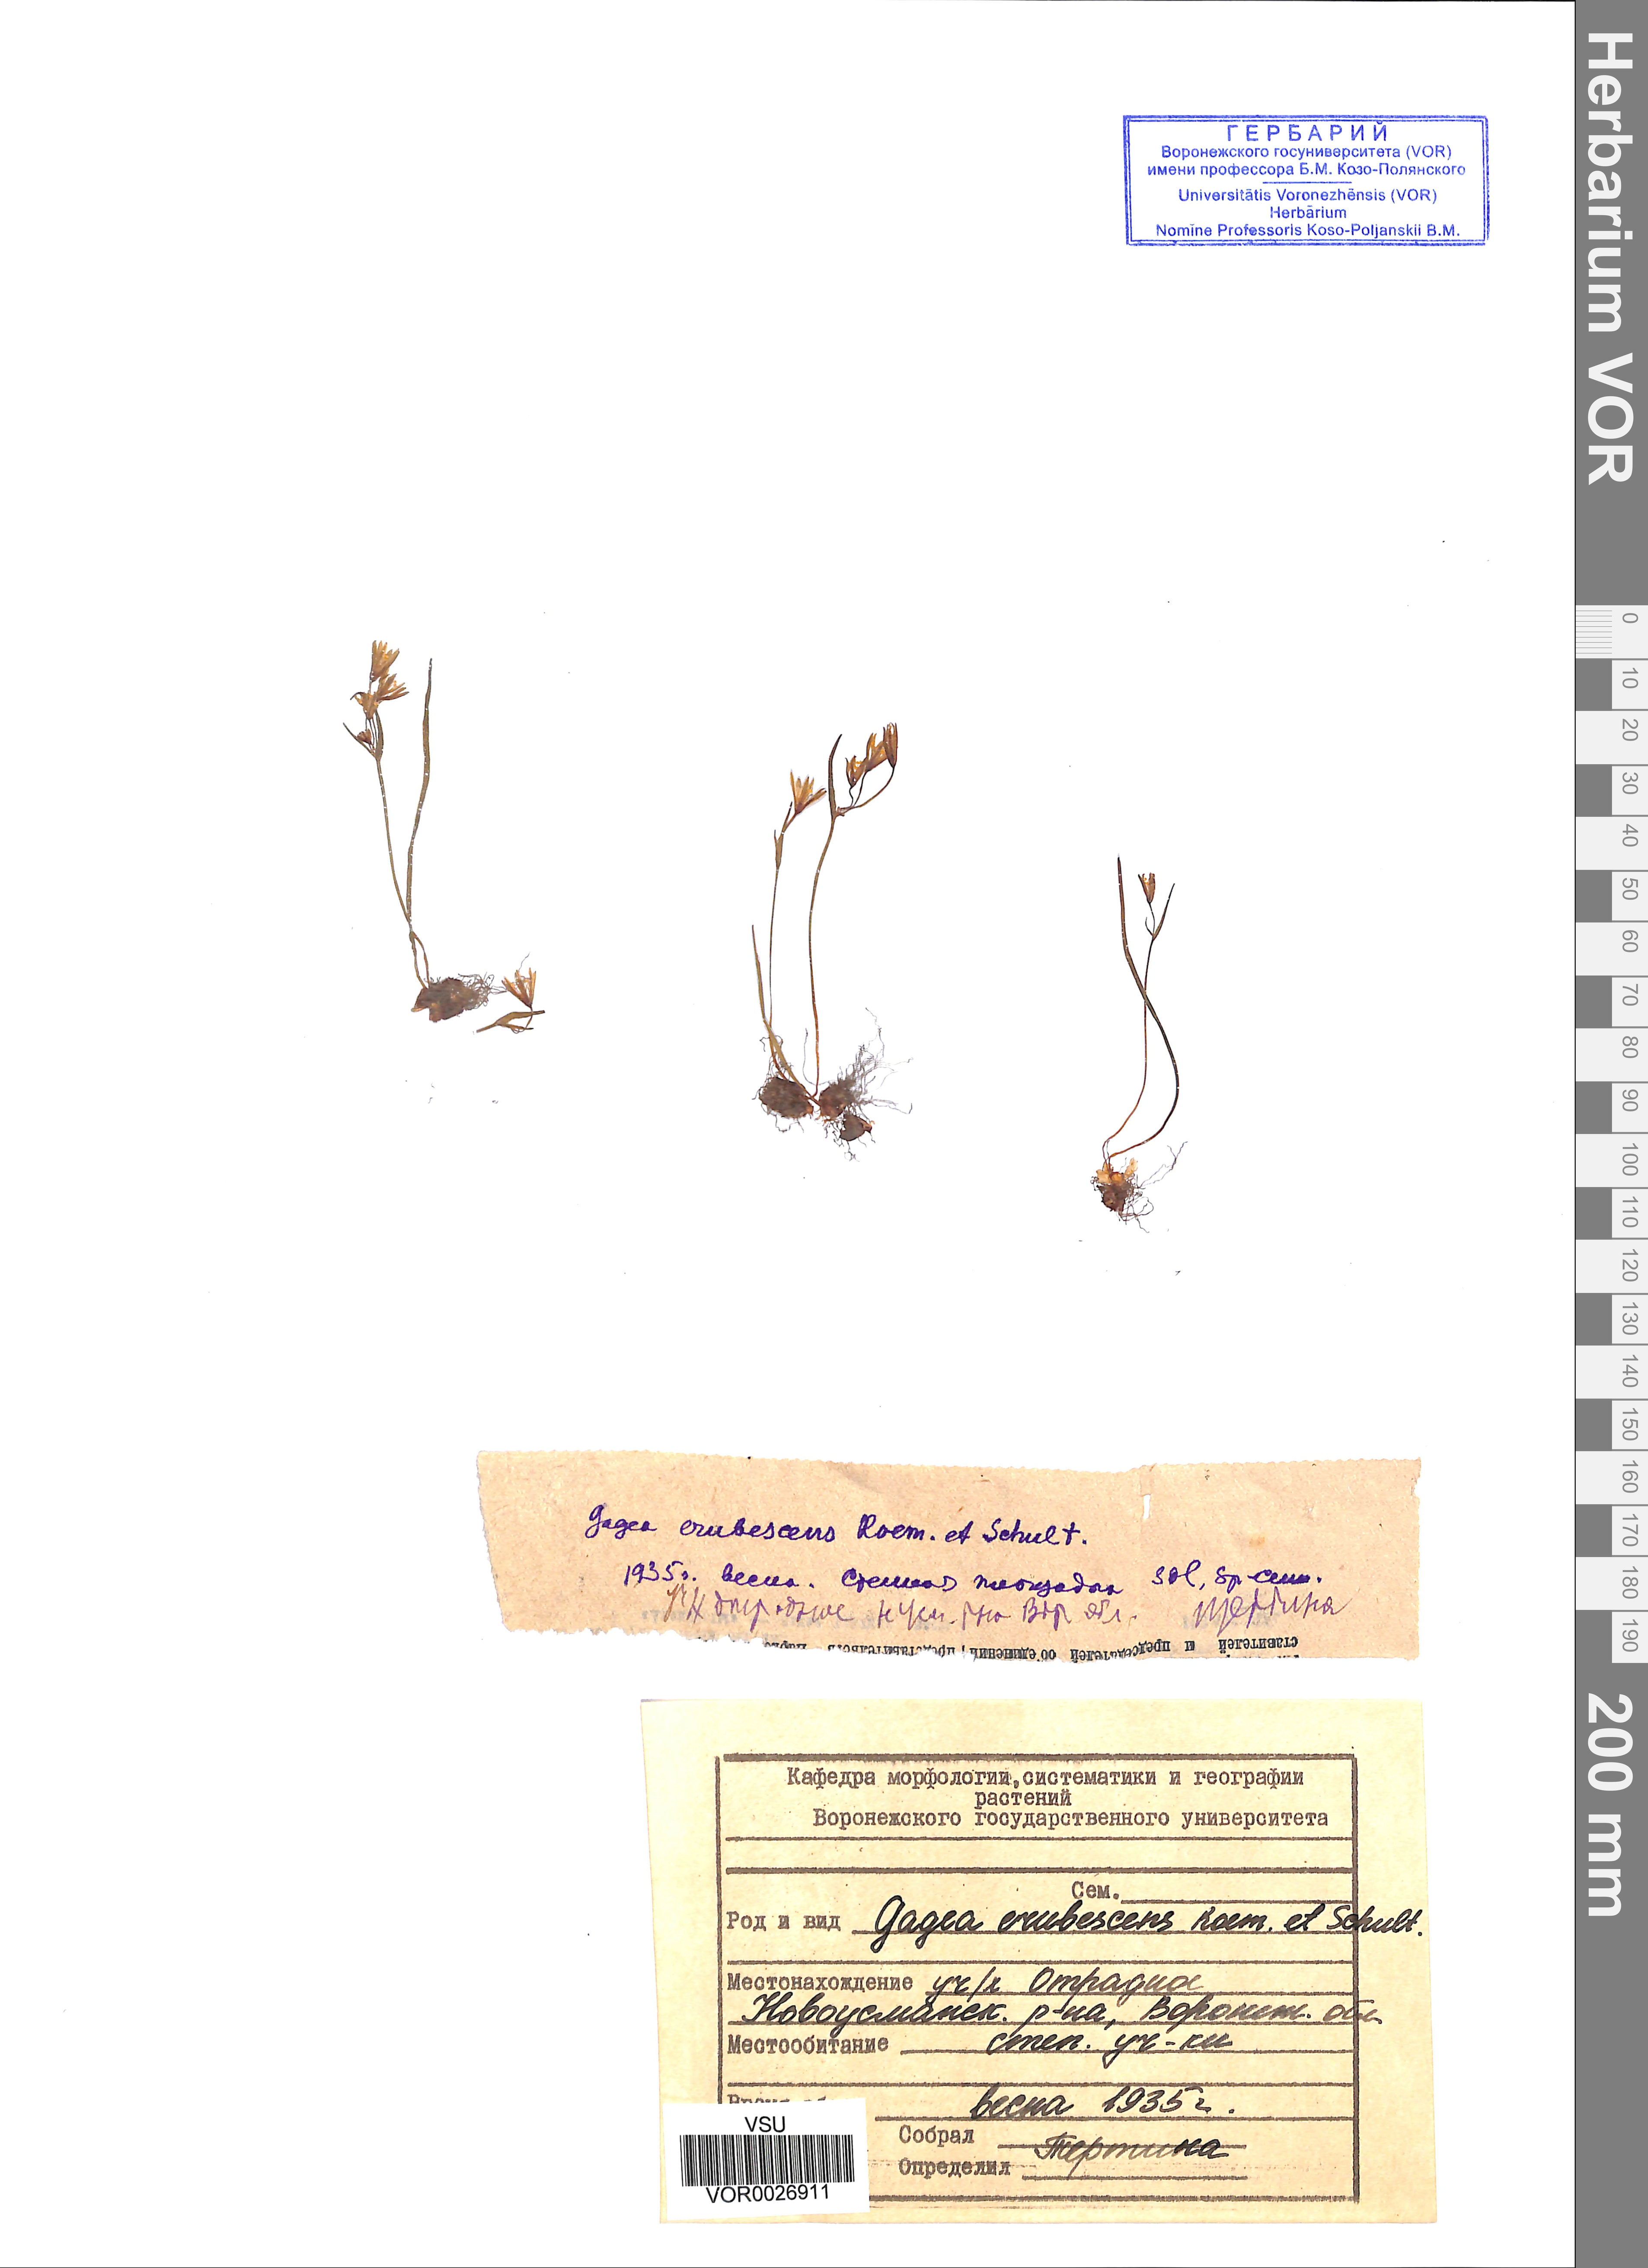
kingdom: Plantae
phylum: Tracheophyta
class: Liliopsida
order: Liliales
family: Liliaceae
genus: Gagea
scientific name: Gagea fragifera
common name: Lily
